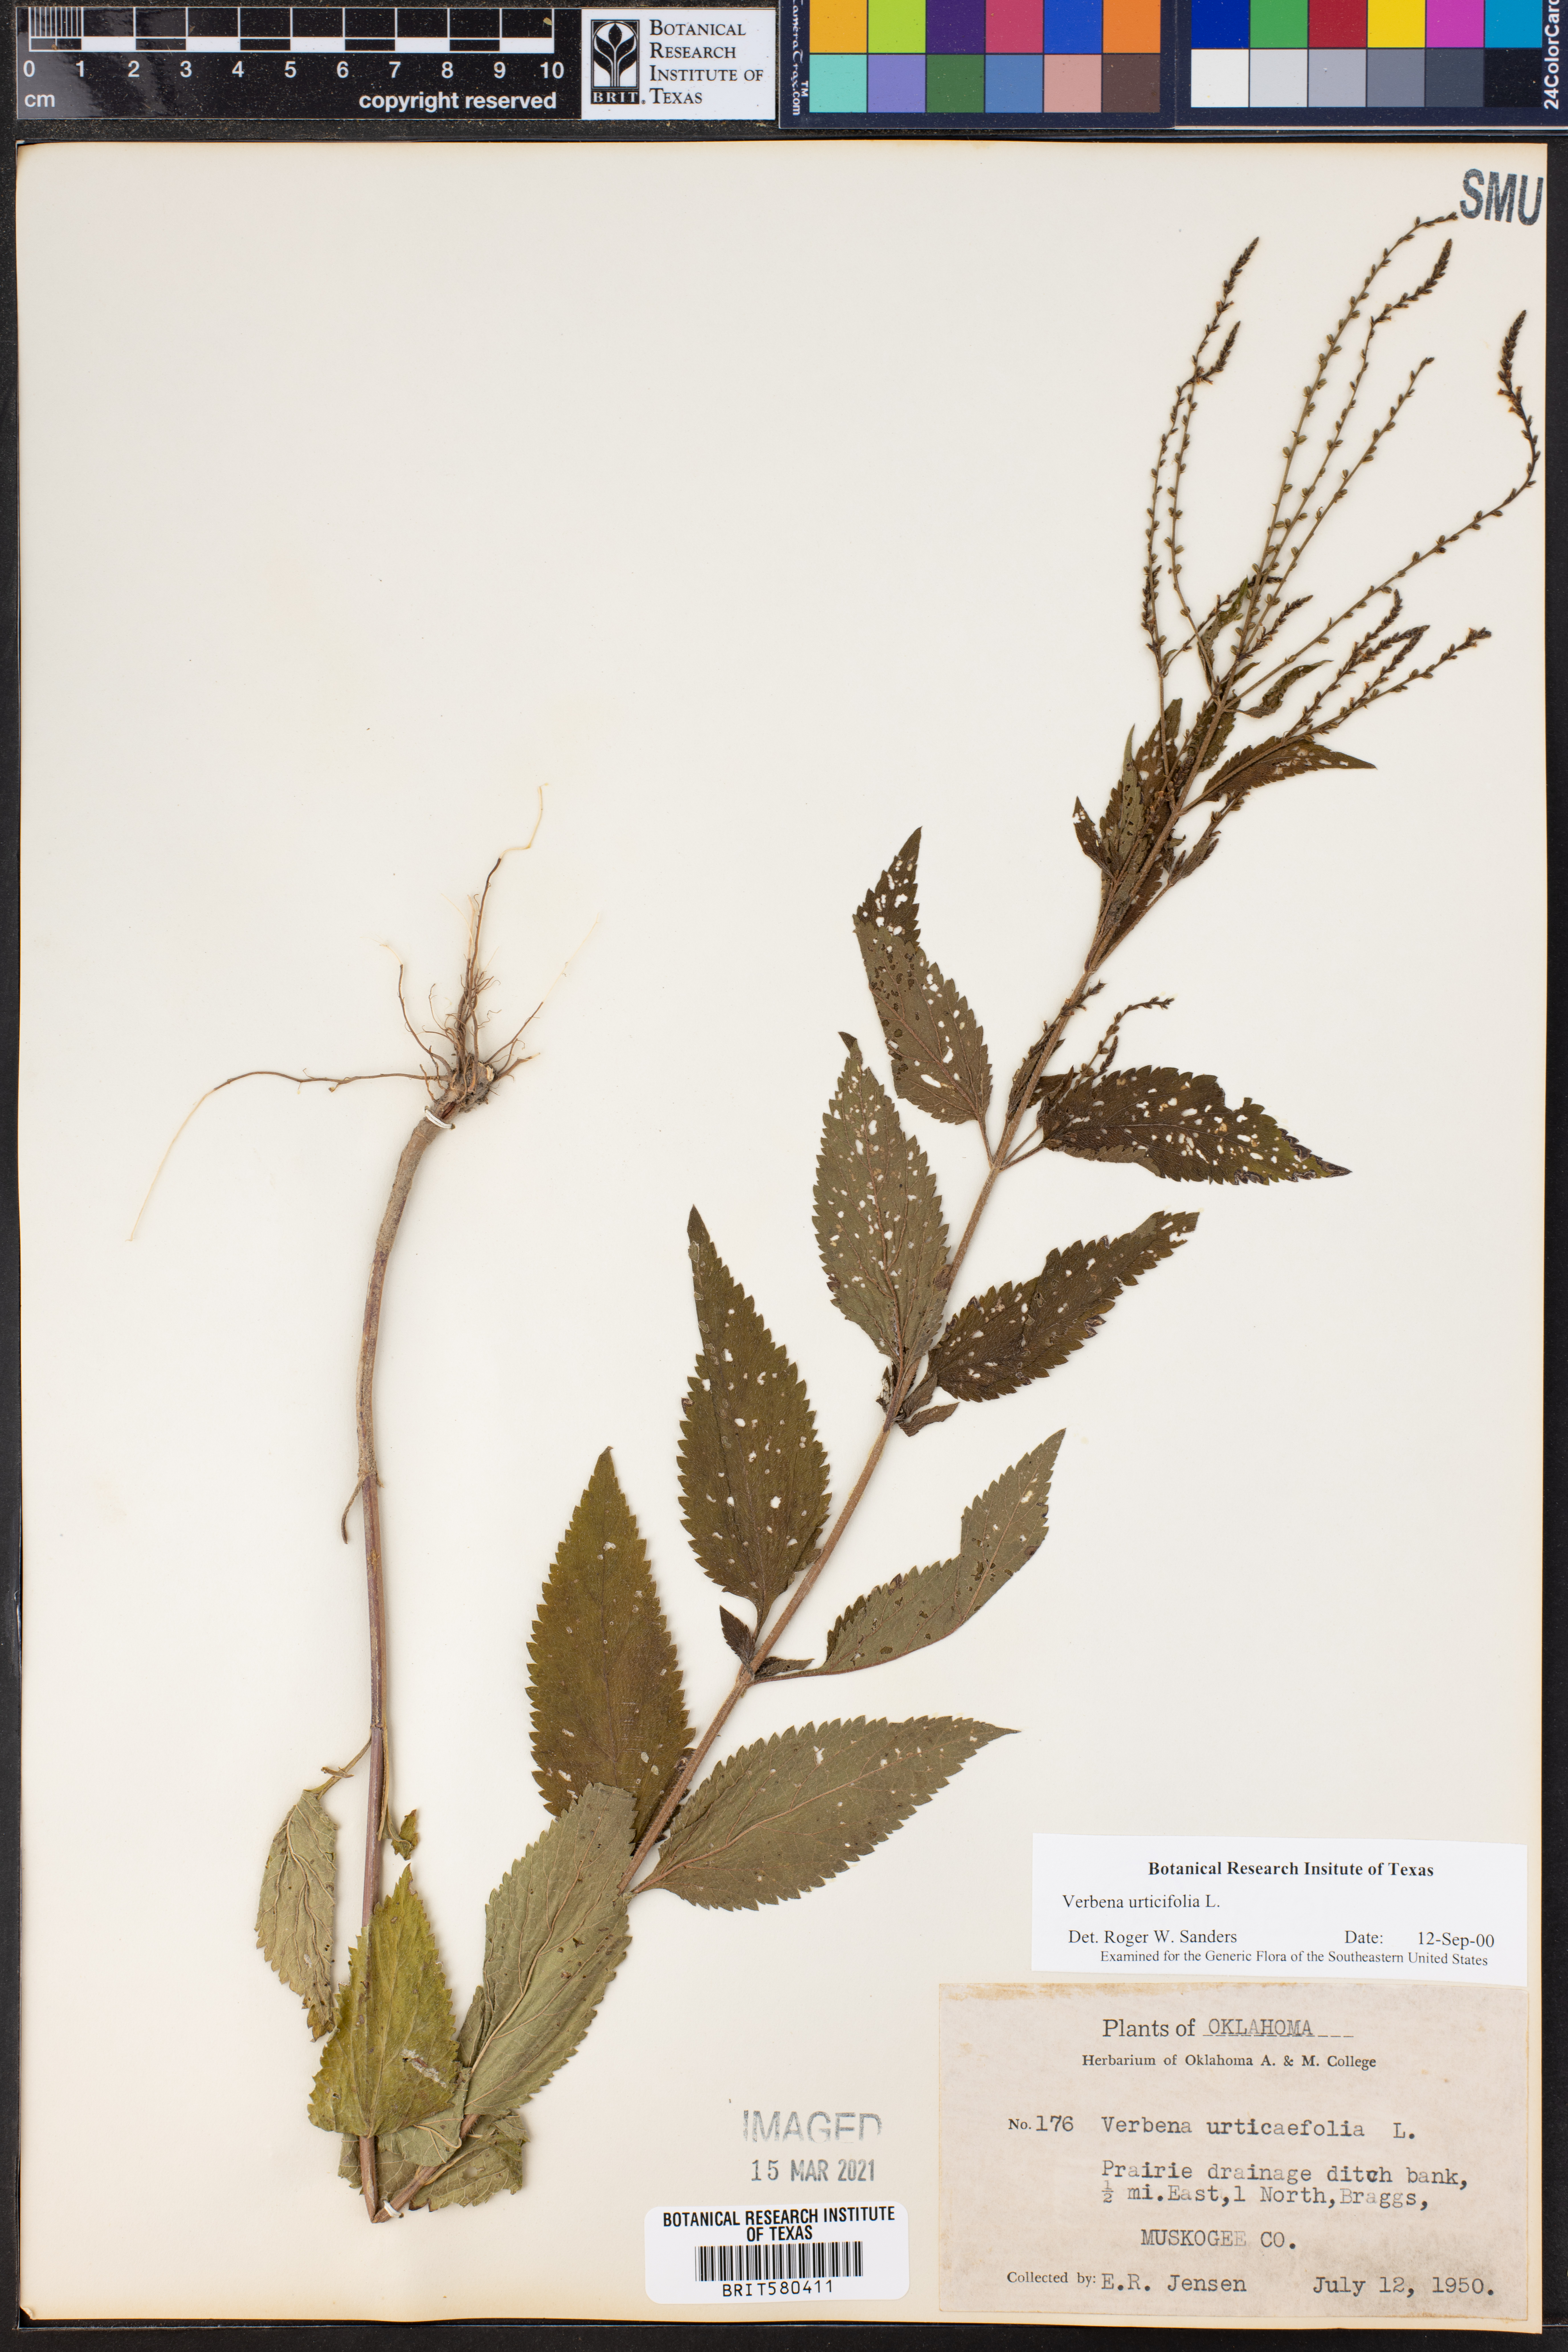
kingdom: Plantae
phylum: Tracheophyta
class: Magnoliopsida
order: Lamiales
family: Verbenaceae
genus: Verbena
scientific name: Verbena urticifolia
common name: Nettle-leaved vervain
